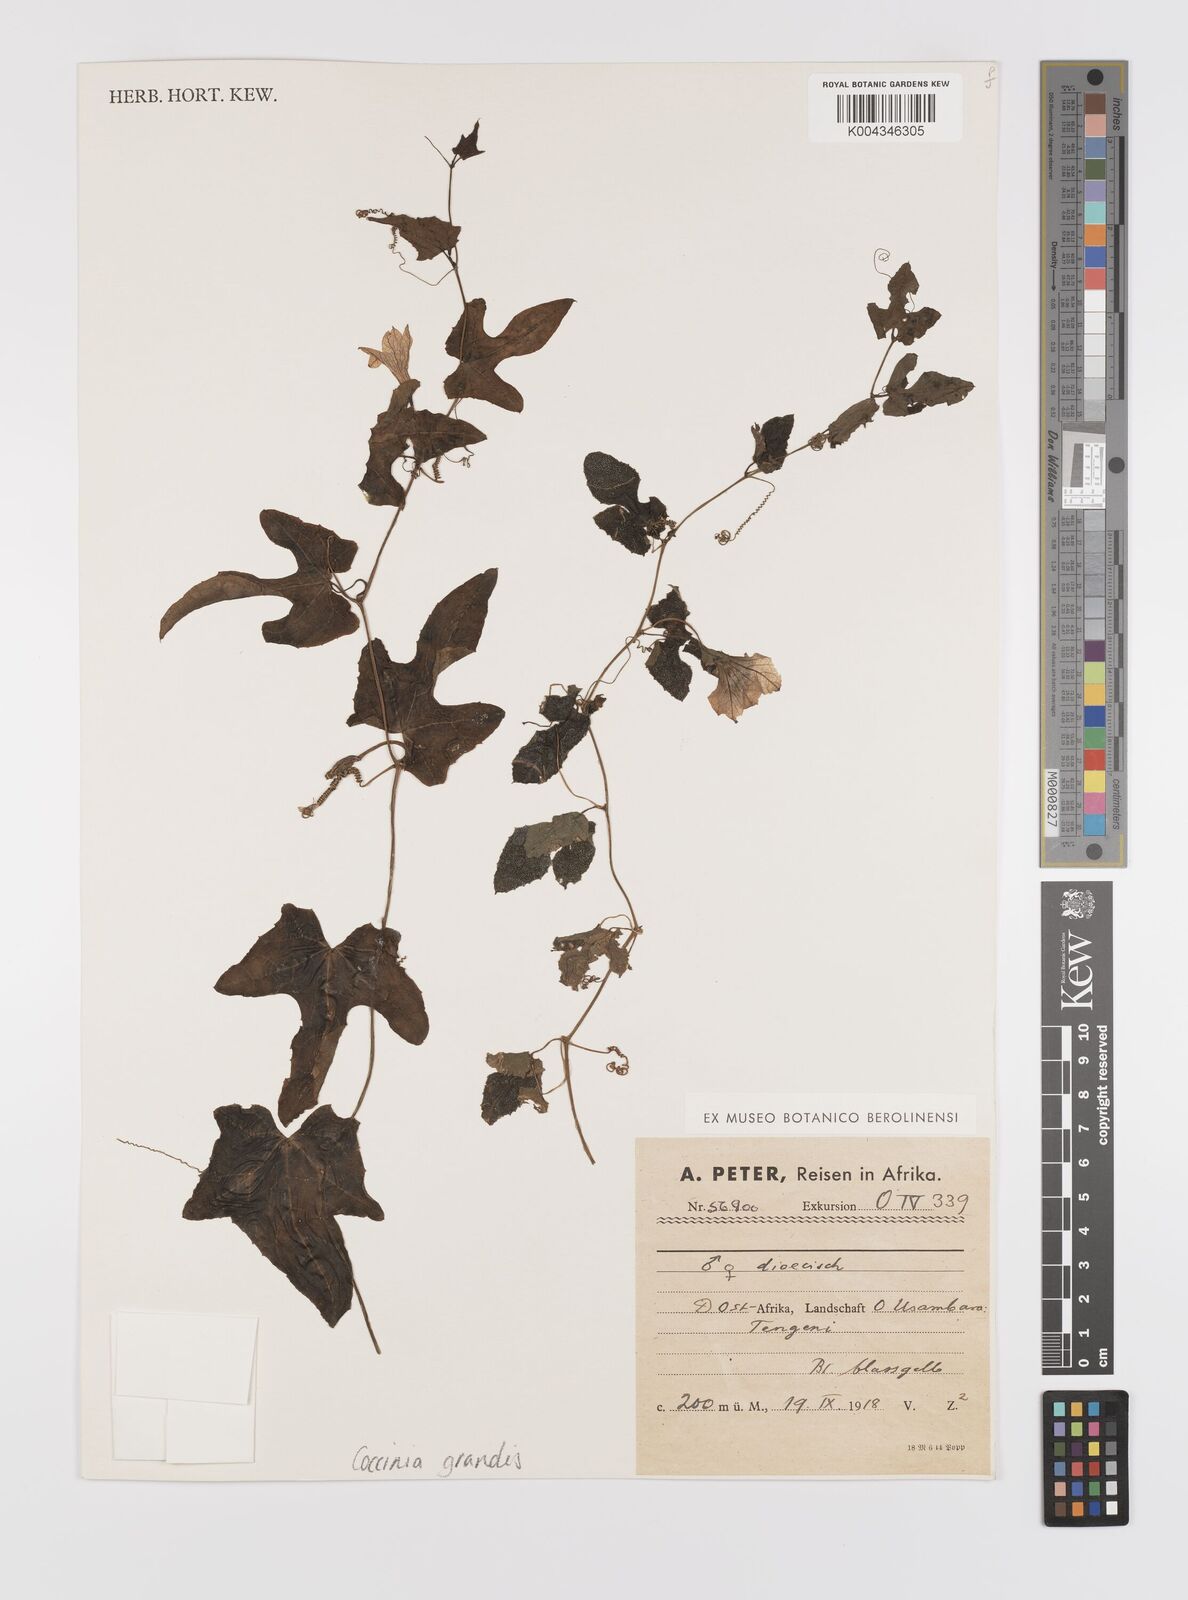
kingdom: Plantae
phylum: Tracheophyta
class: Magnoliopsida
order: Cucurbitales
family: Cucurbitaceae
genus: Coccinia
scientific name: Coccinia grandis
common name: Ivy gourd
